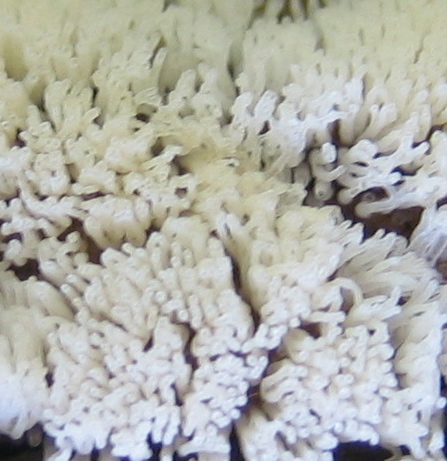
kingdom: Protozoa
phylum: Mycetozoa
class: Protosteliomycetes
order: Ceratiomyxales
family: Ceratiomyxaceae
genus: Ceratiomyxa
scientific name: Ceratiomyxa fruticulosa
